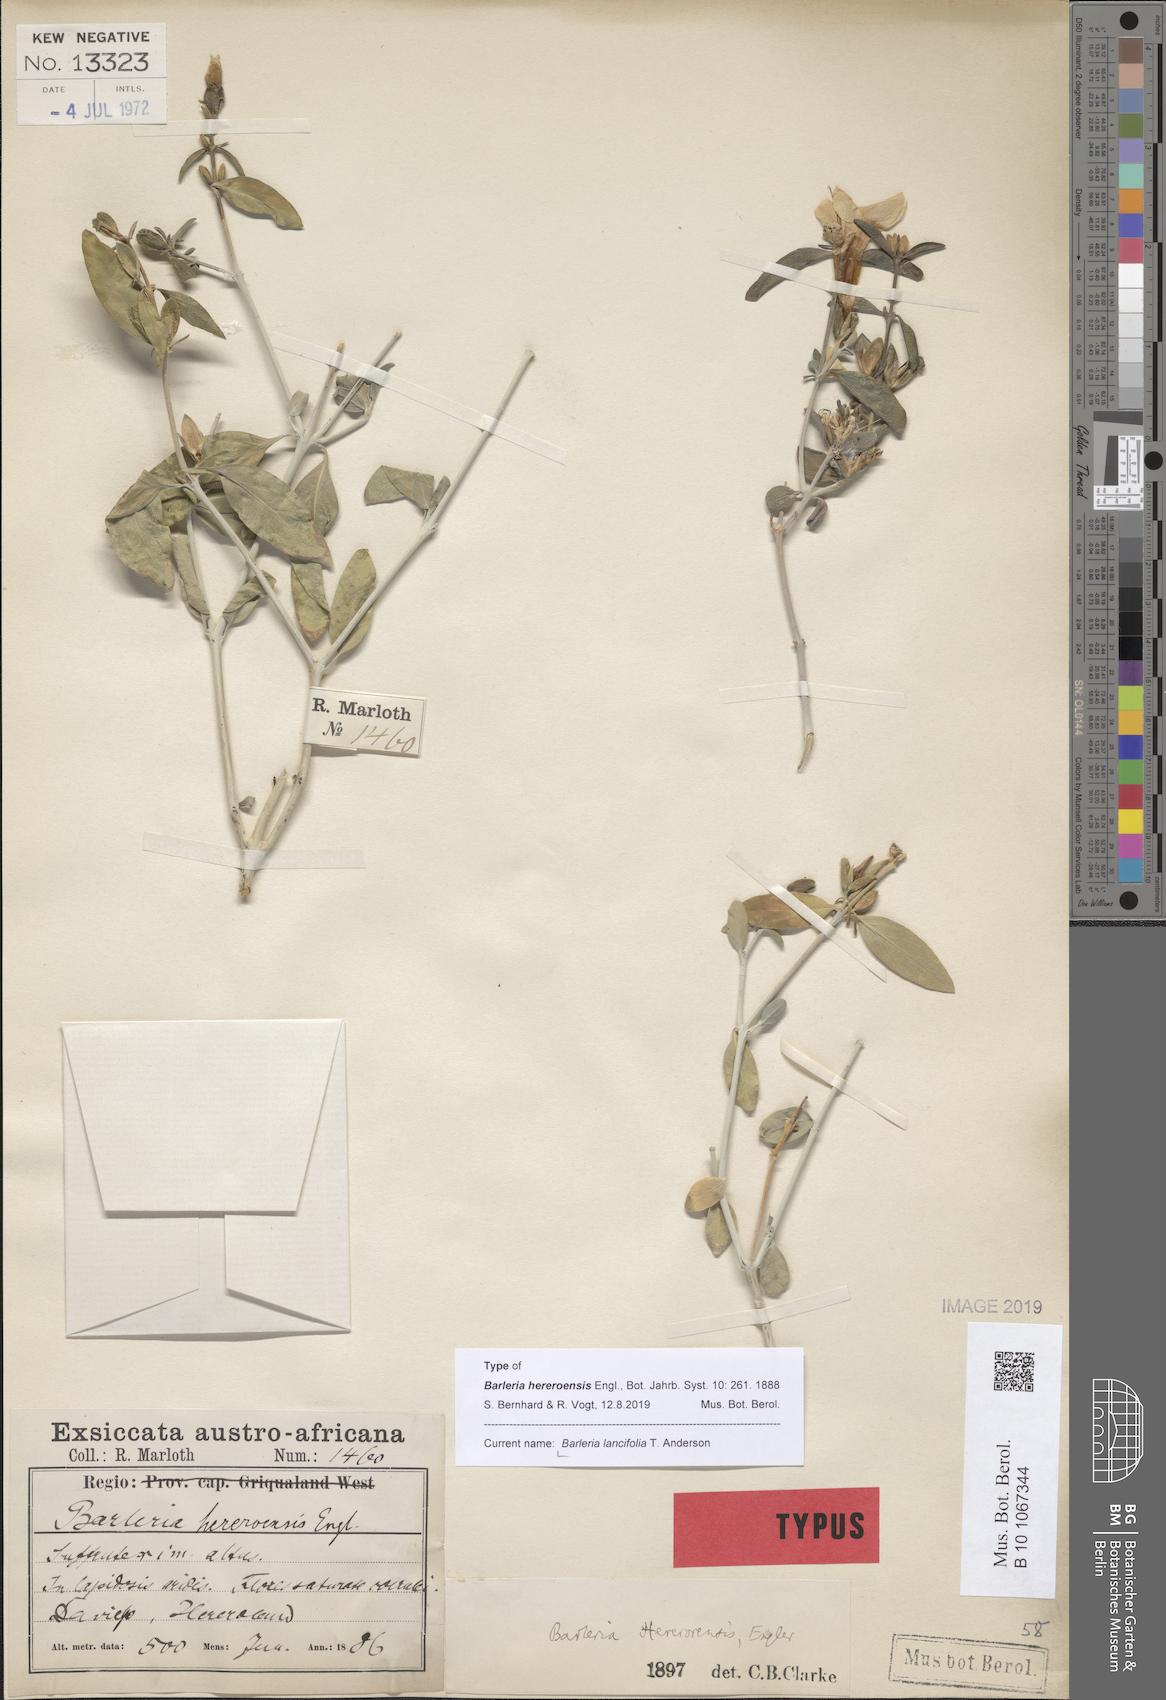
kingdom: Plantae
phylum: Tracheophyta
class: Magnoliopsida
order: Lamiales
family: Acanthaceae
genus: Barleria
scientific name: Barleria lancifolia
